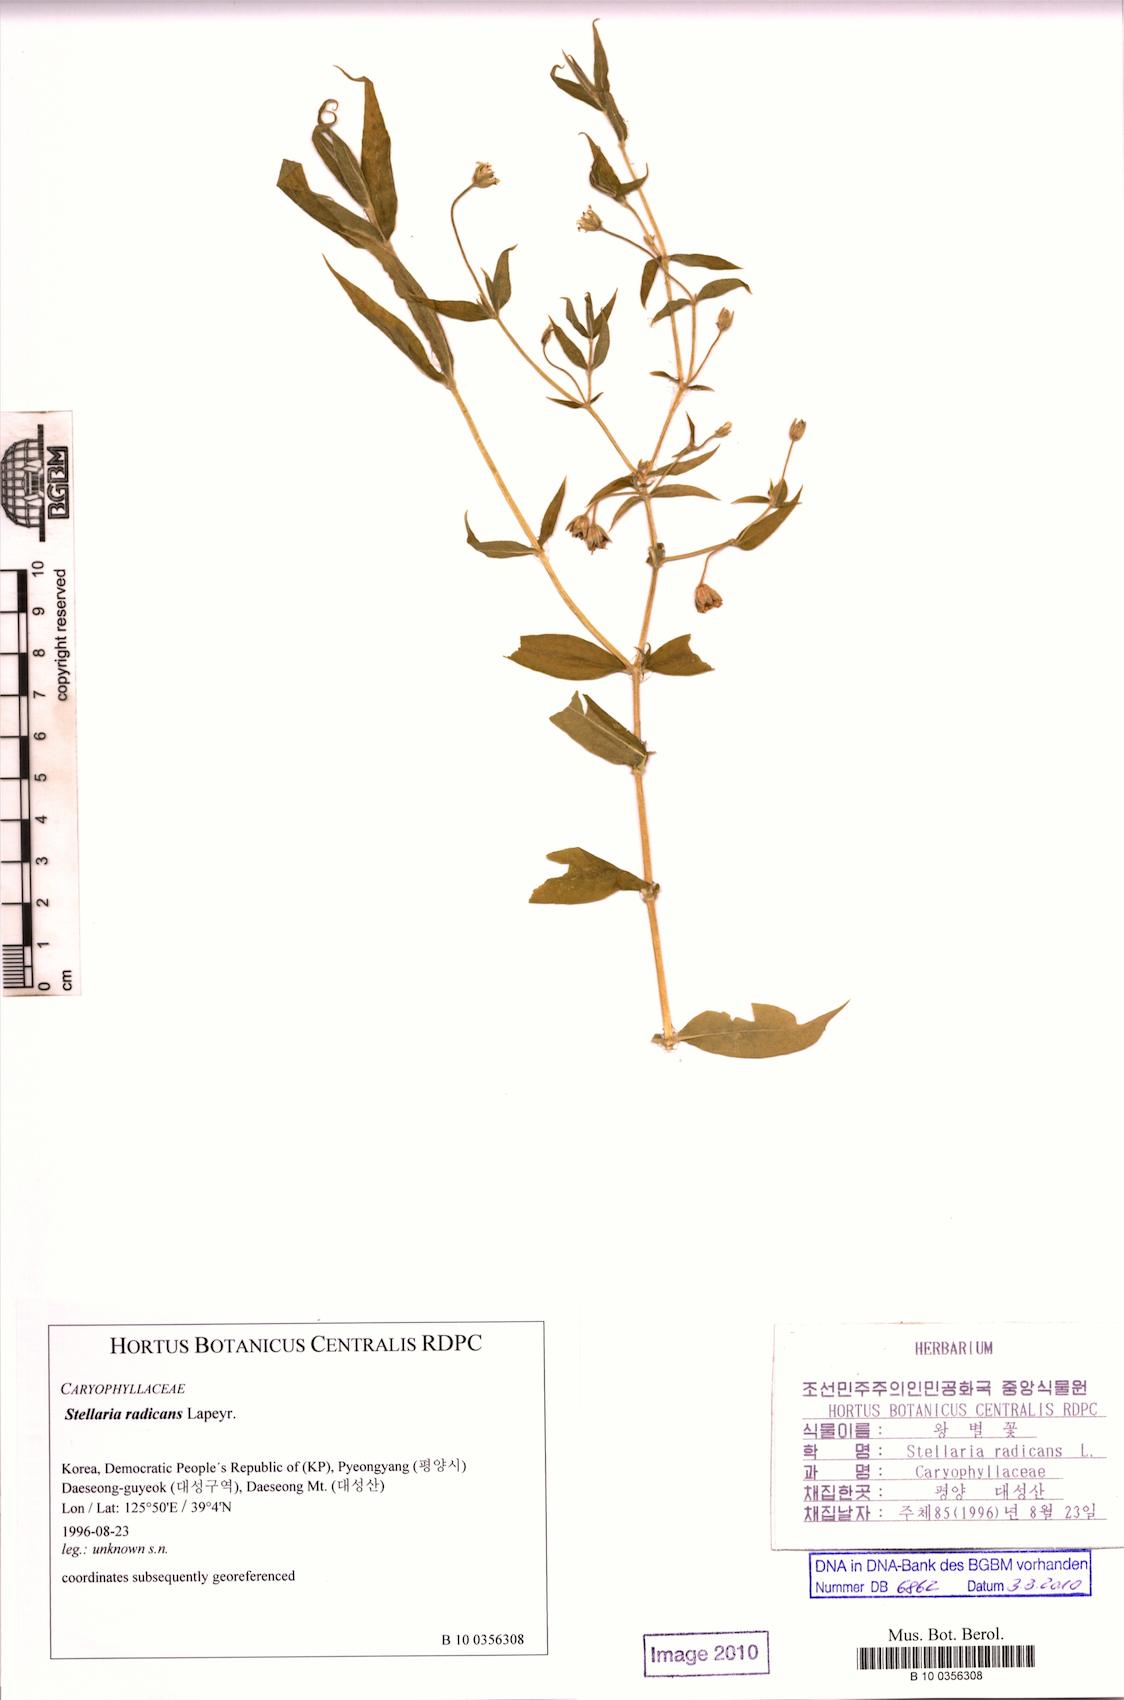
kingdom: Plantae
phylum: Tracheophyta
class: Magnoliopsida
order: Caryophyllales
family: Caryophyllaceae
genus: Dichodon
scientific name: Dichodon cerastoides
